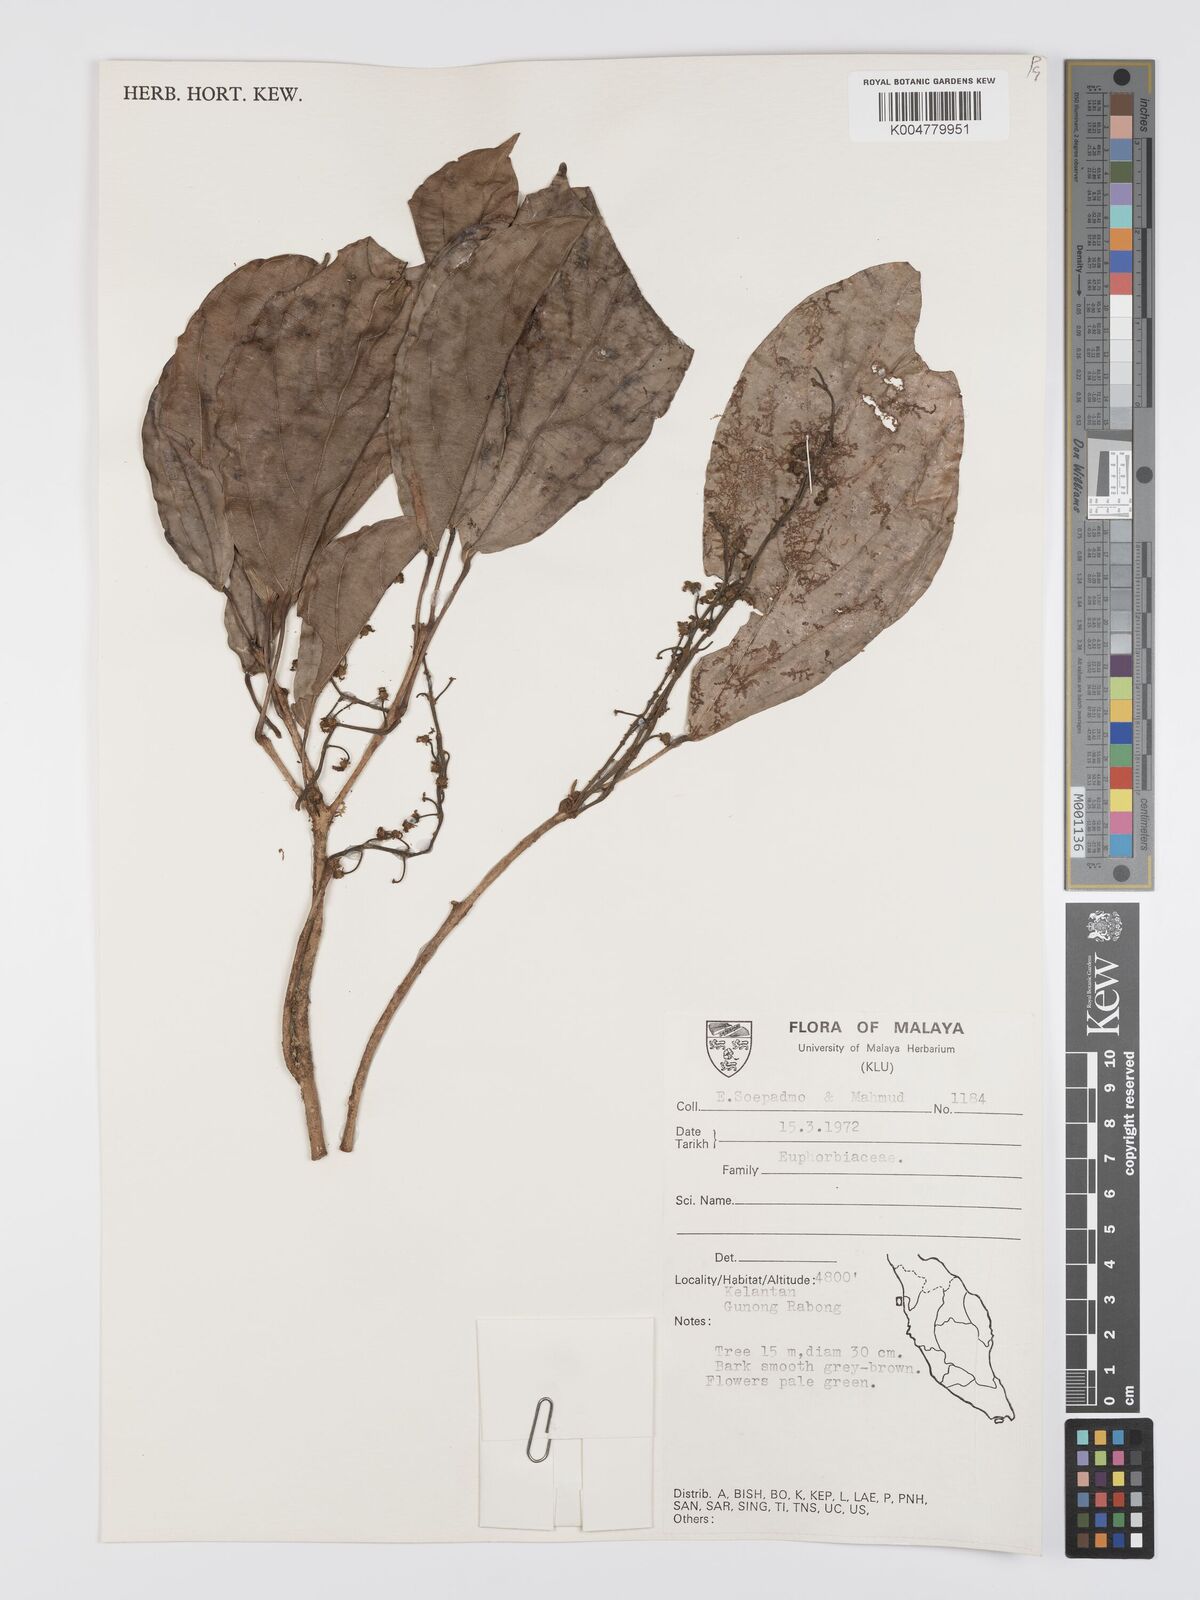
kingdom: Plantae
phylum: Tracheophyta
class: Magnoliopsida
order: Malpighiales
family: Euphorbiaceae
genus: Mallotus
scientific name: Mallotus leucodermis
